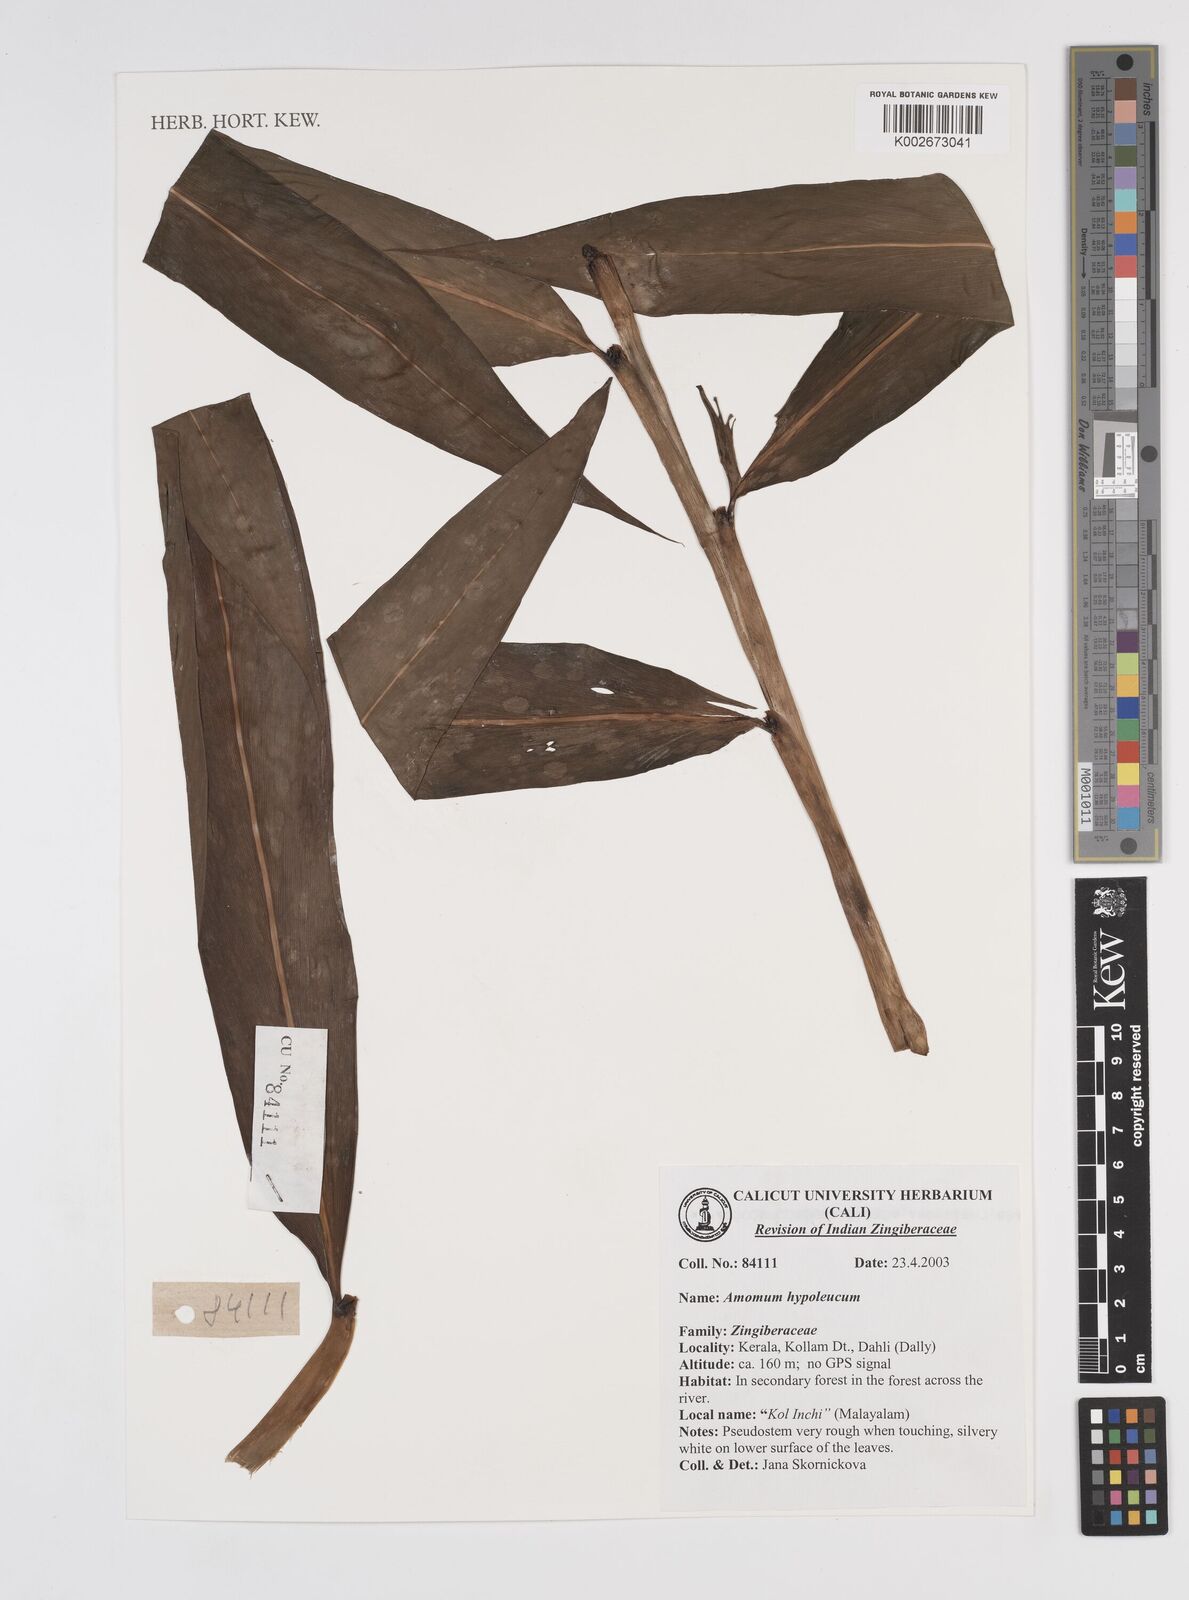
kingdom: Plantae
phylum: Tracheophyta
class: Liliopsida
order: Zingiberales
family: Zingiberaceae
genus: Amomum
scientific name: Amomum hypoleucum
